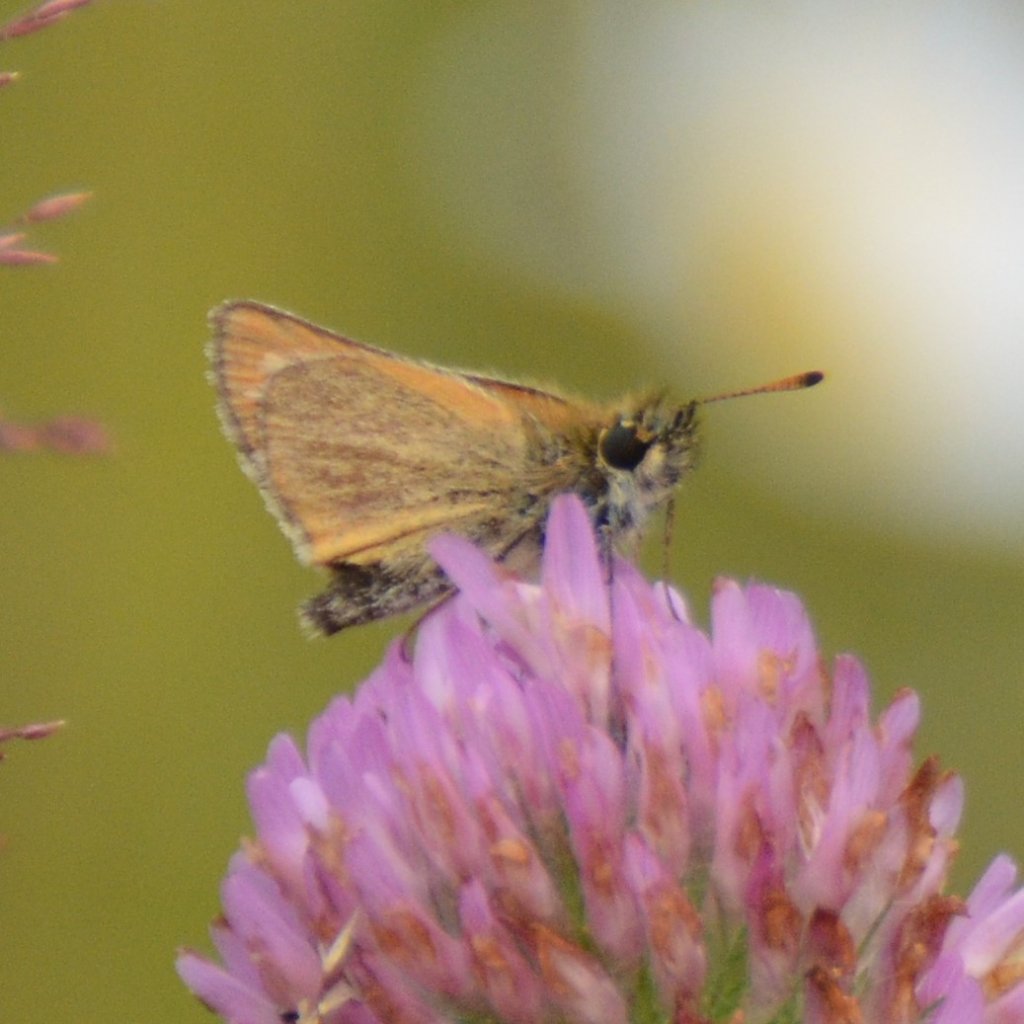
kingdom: Animalia
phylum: Arthropoda
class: Insecta
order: Lepidoptera
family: Hesperiidae
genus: Thymelicus
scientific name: Thymelicus lineola
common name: European Skipper
